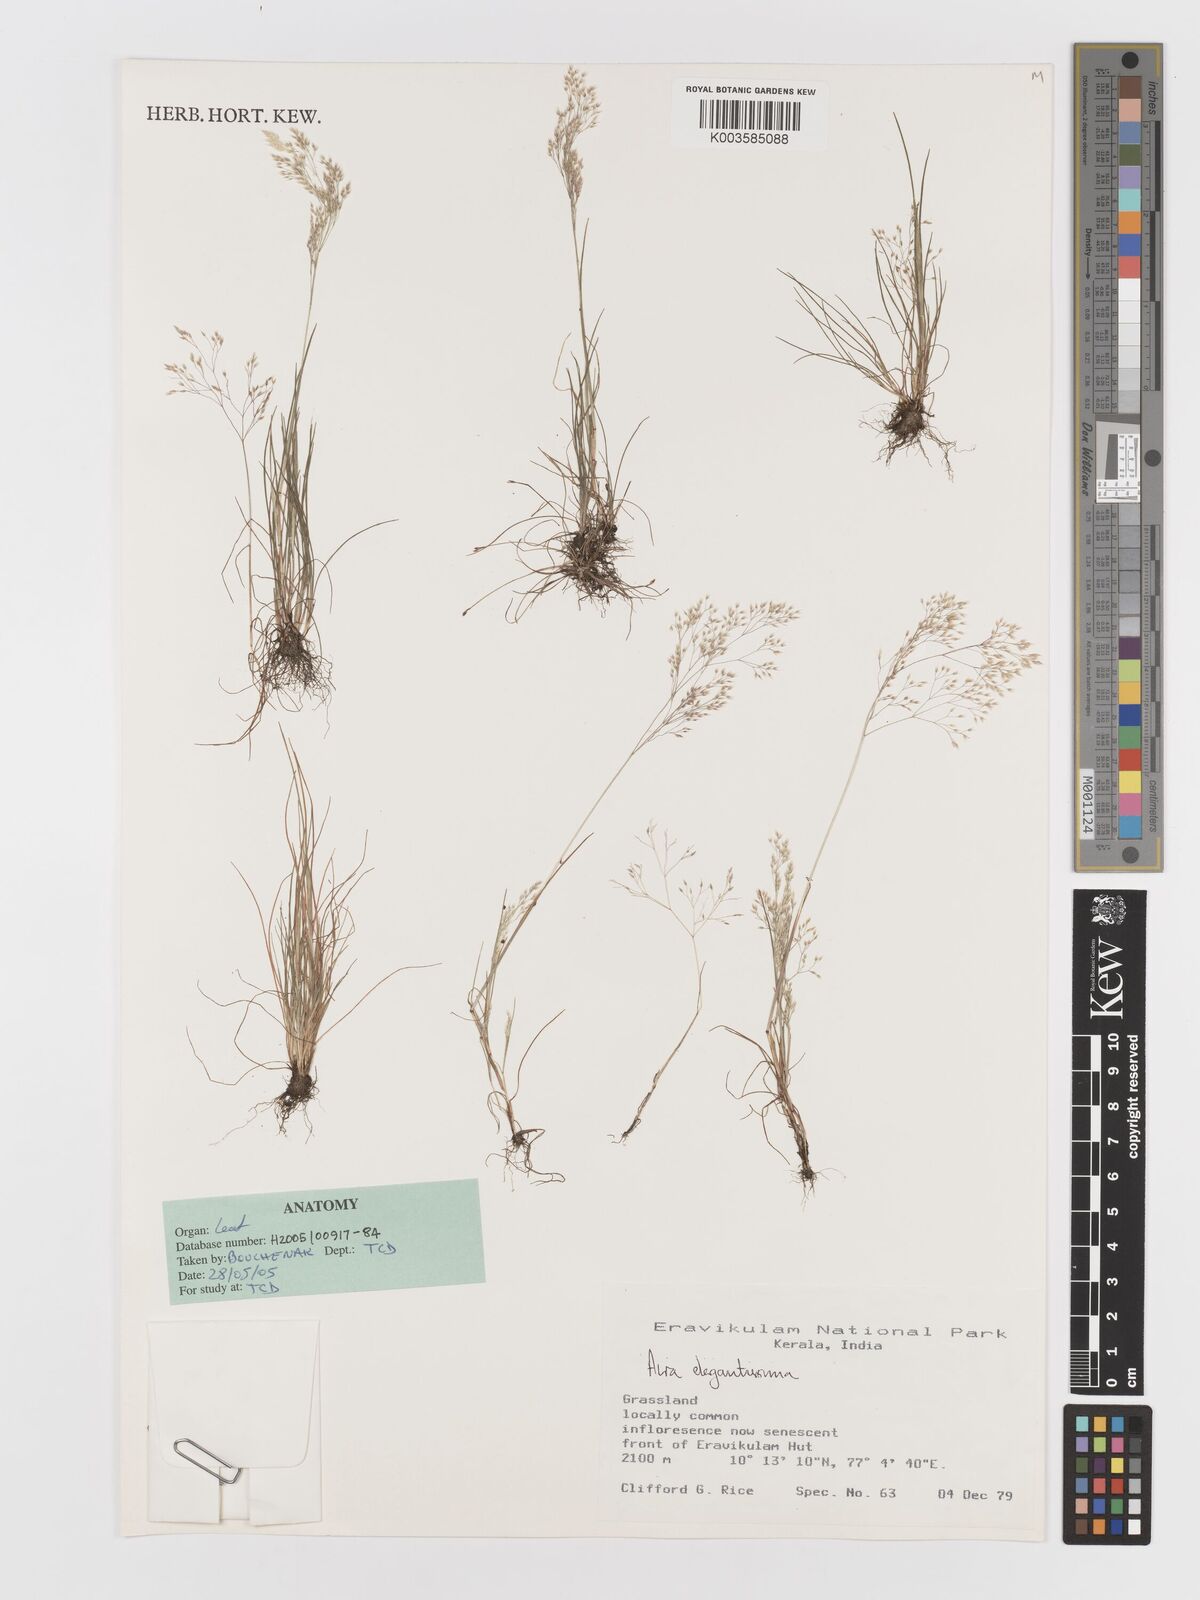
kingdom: Plantae
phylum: Tracheophyta
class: Liliopsida
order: Poales
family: Poaceae
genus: Aira
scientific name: Aira elegans
